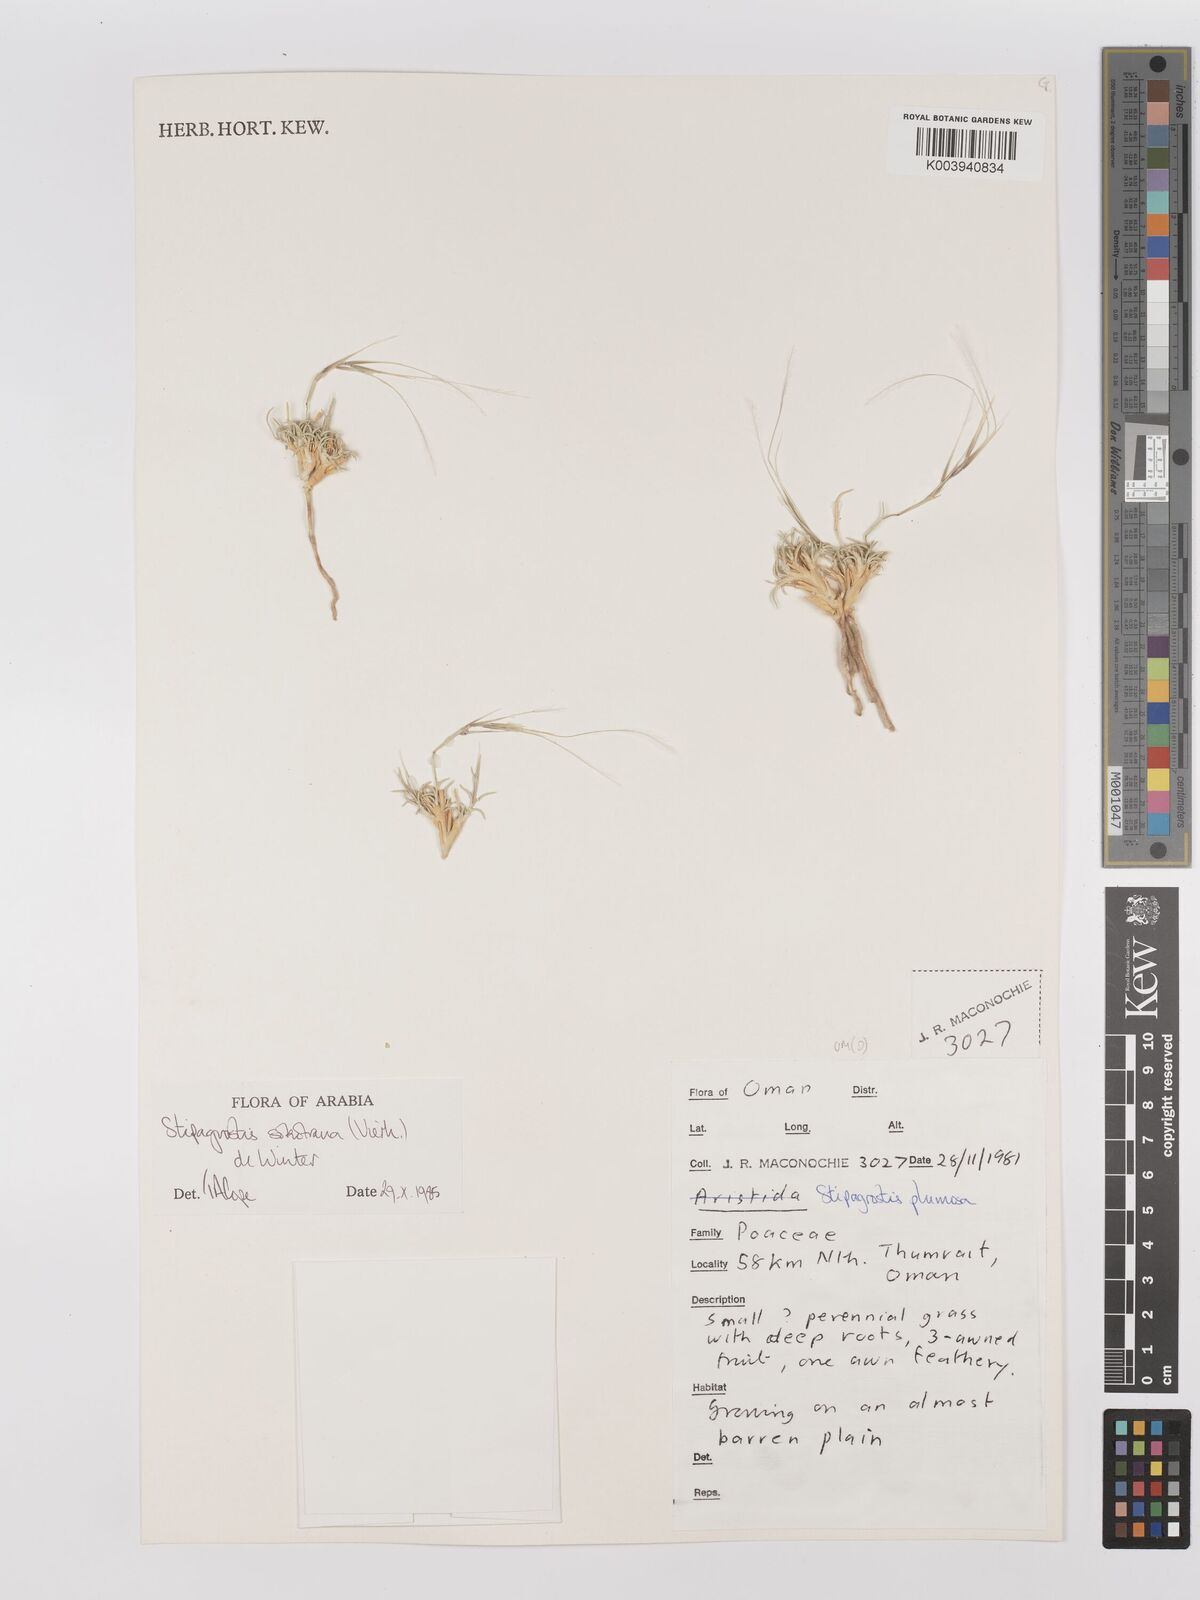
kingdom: Plantae
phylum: Tracheophyta
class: Liliopsida
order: Poales
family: Poaceae
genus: Stipagrostis
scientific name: Stipagrostis sokotrana
